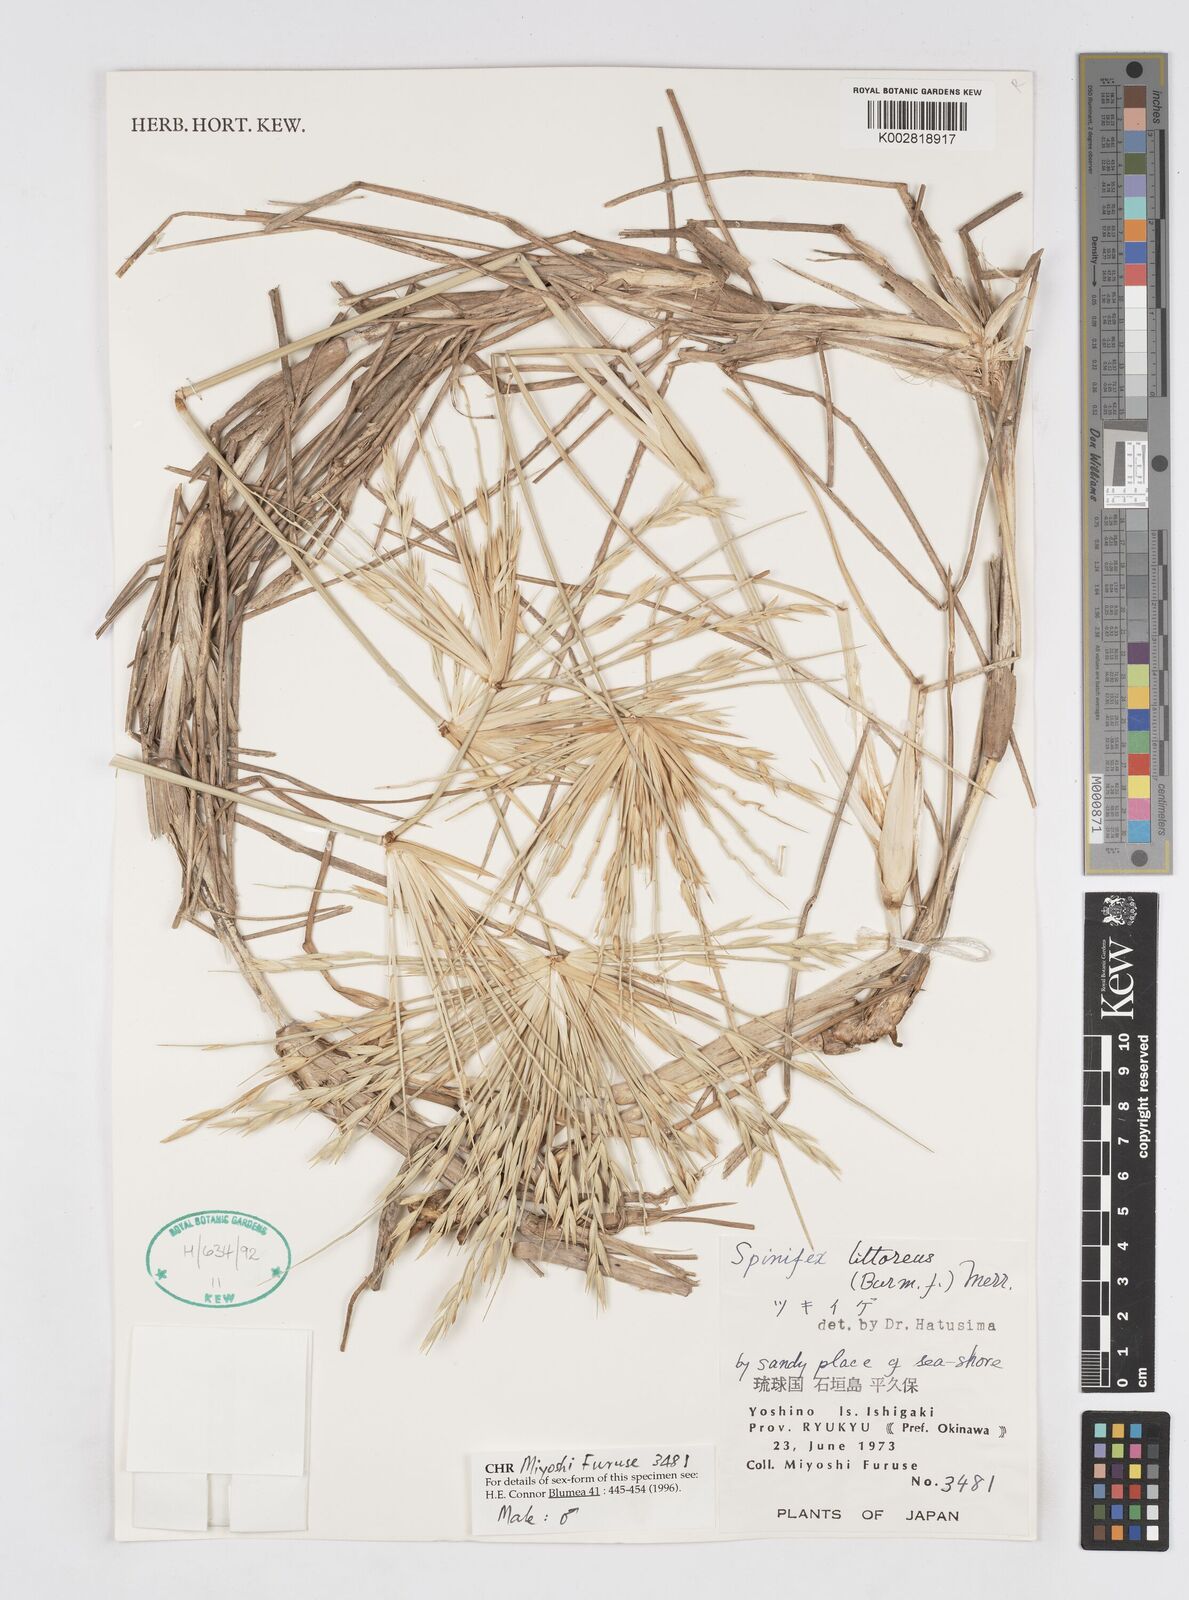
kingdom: Plantae
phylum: Tracheophyta
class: Liliopsida
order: Poales
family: Poaceae
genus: Spinifex
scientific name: Spinifex littoreus
